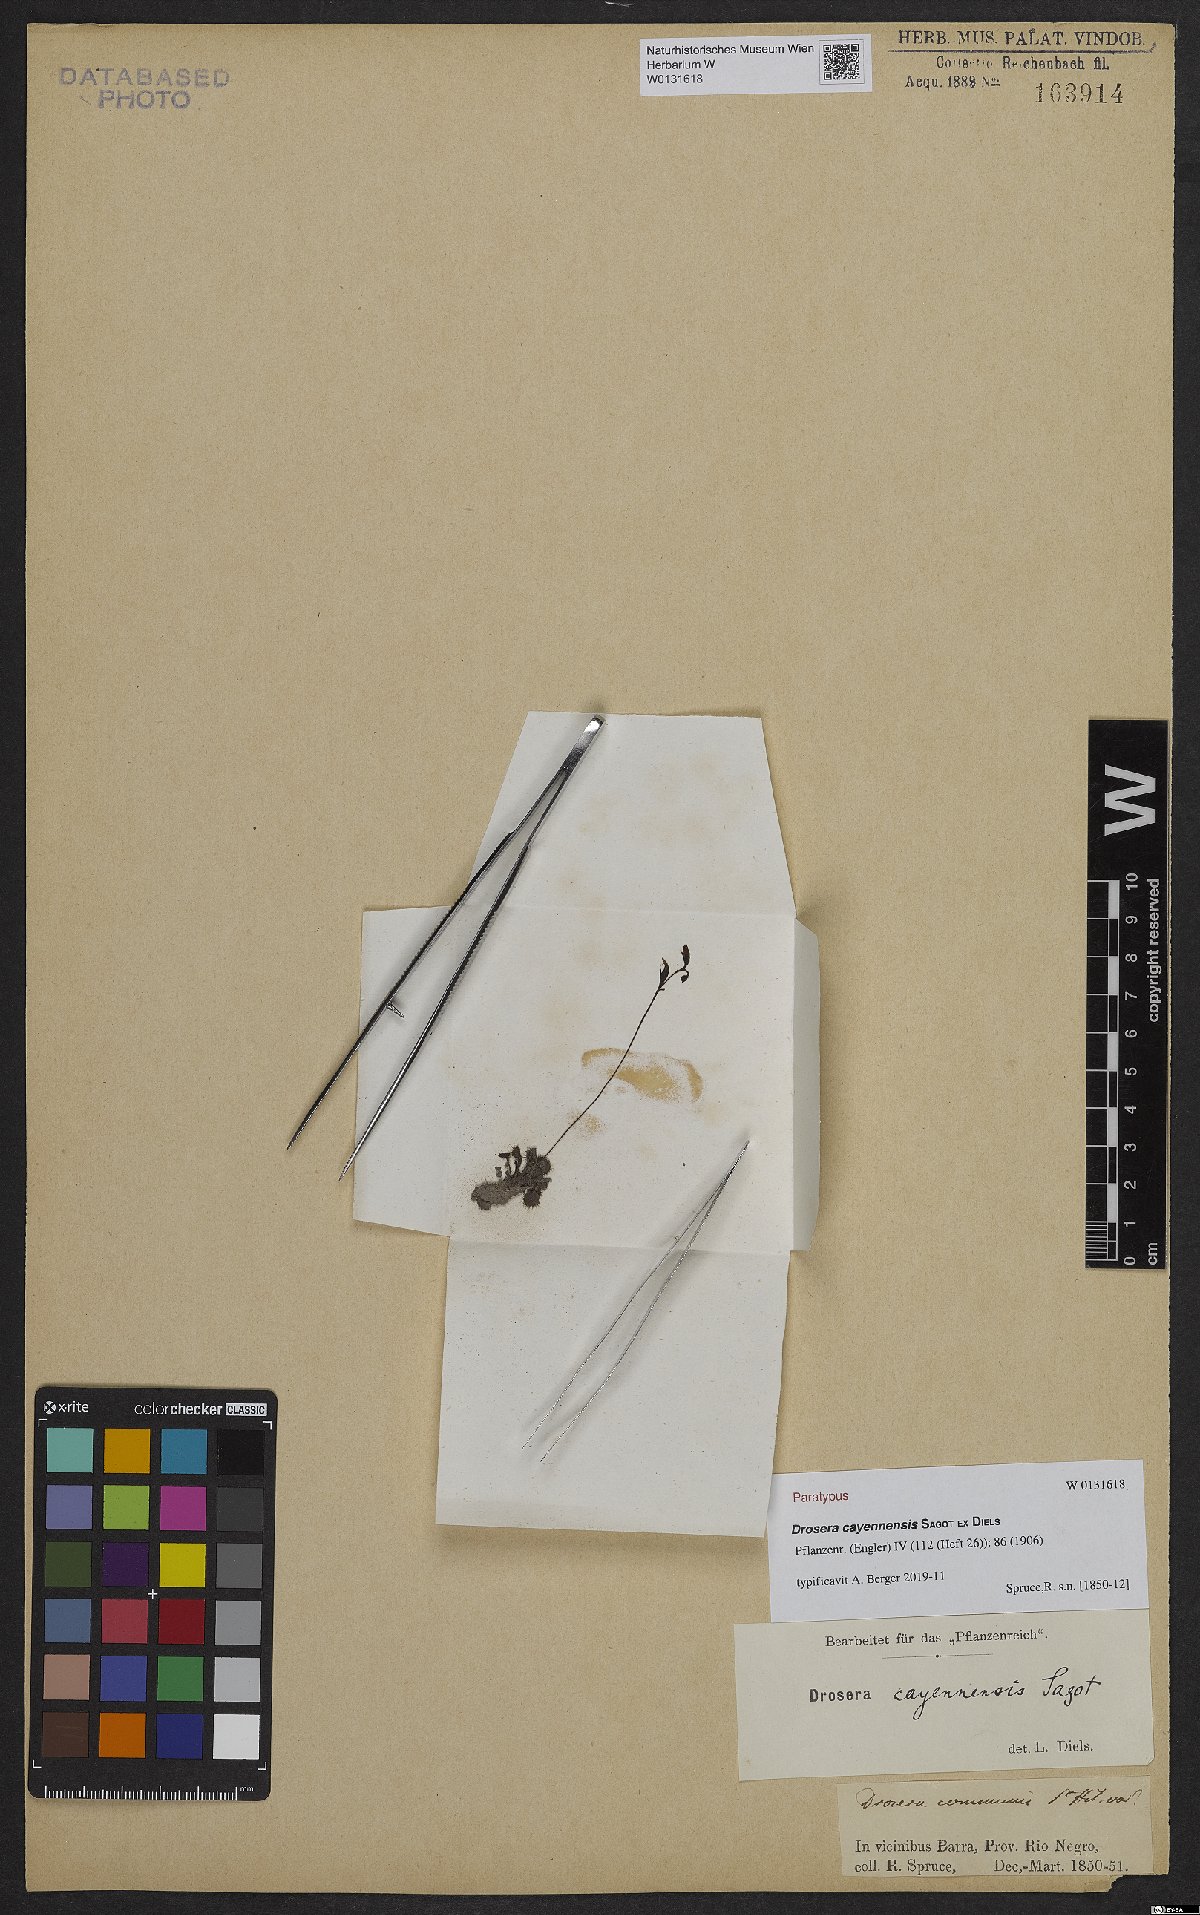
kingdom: Plantae
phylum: Tracheophyta
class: Magnoliopsida
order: Caryophyllales
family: Droseraceae
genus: Drosera
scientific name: Drosera cayennensis
